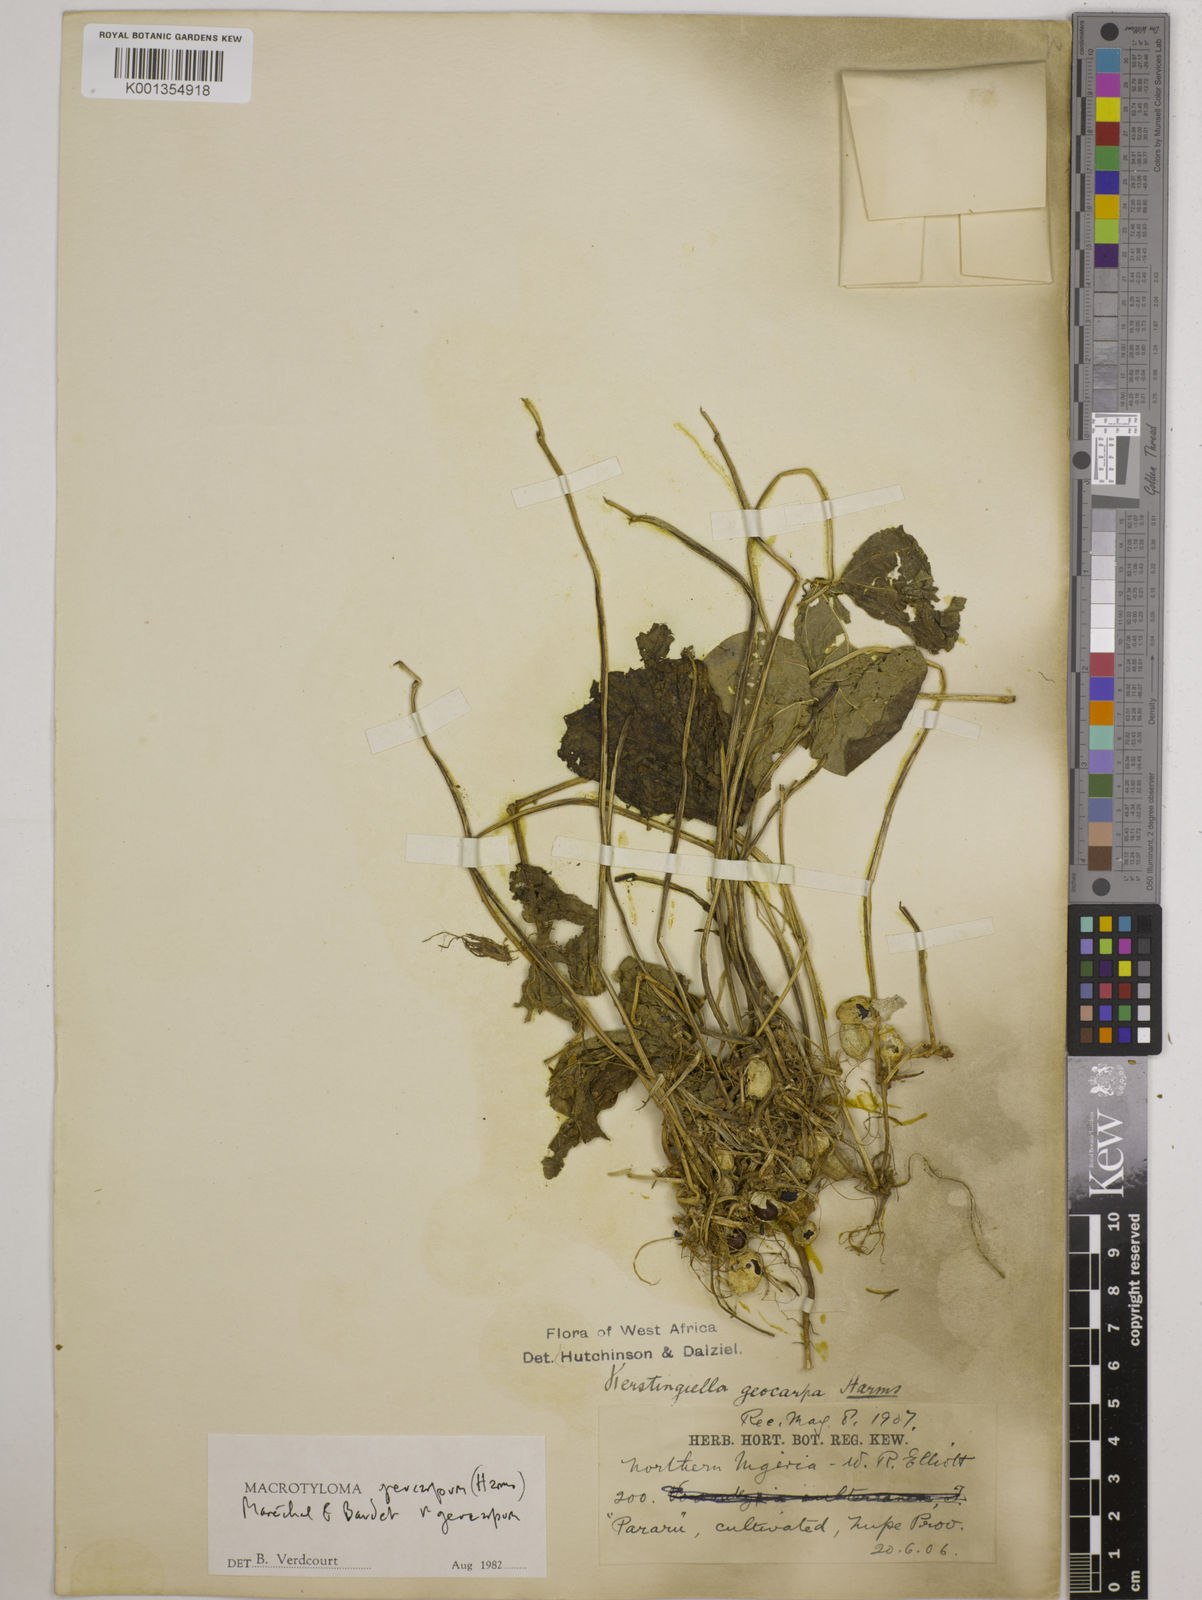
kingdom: Plantae
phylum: Tracheophyta
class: Magnoliopsida
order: Fabales
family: Fabaceae
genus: Macrotyloma
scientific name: Macrotyloma geocarpum
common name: Ground-bean
